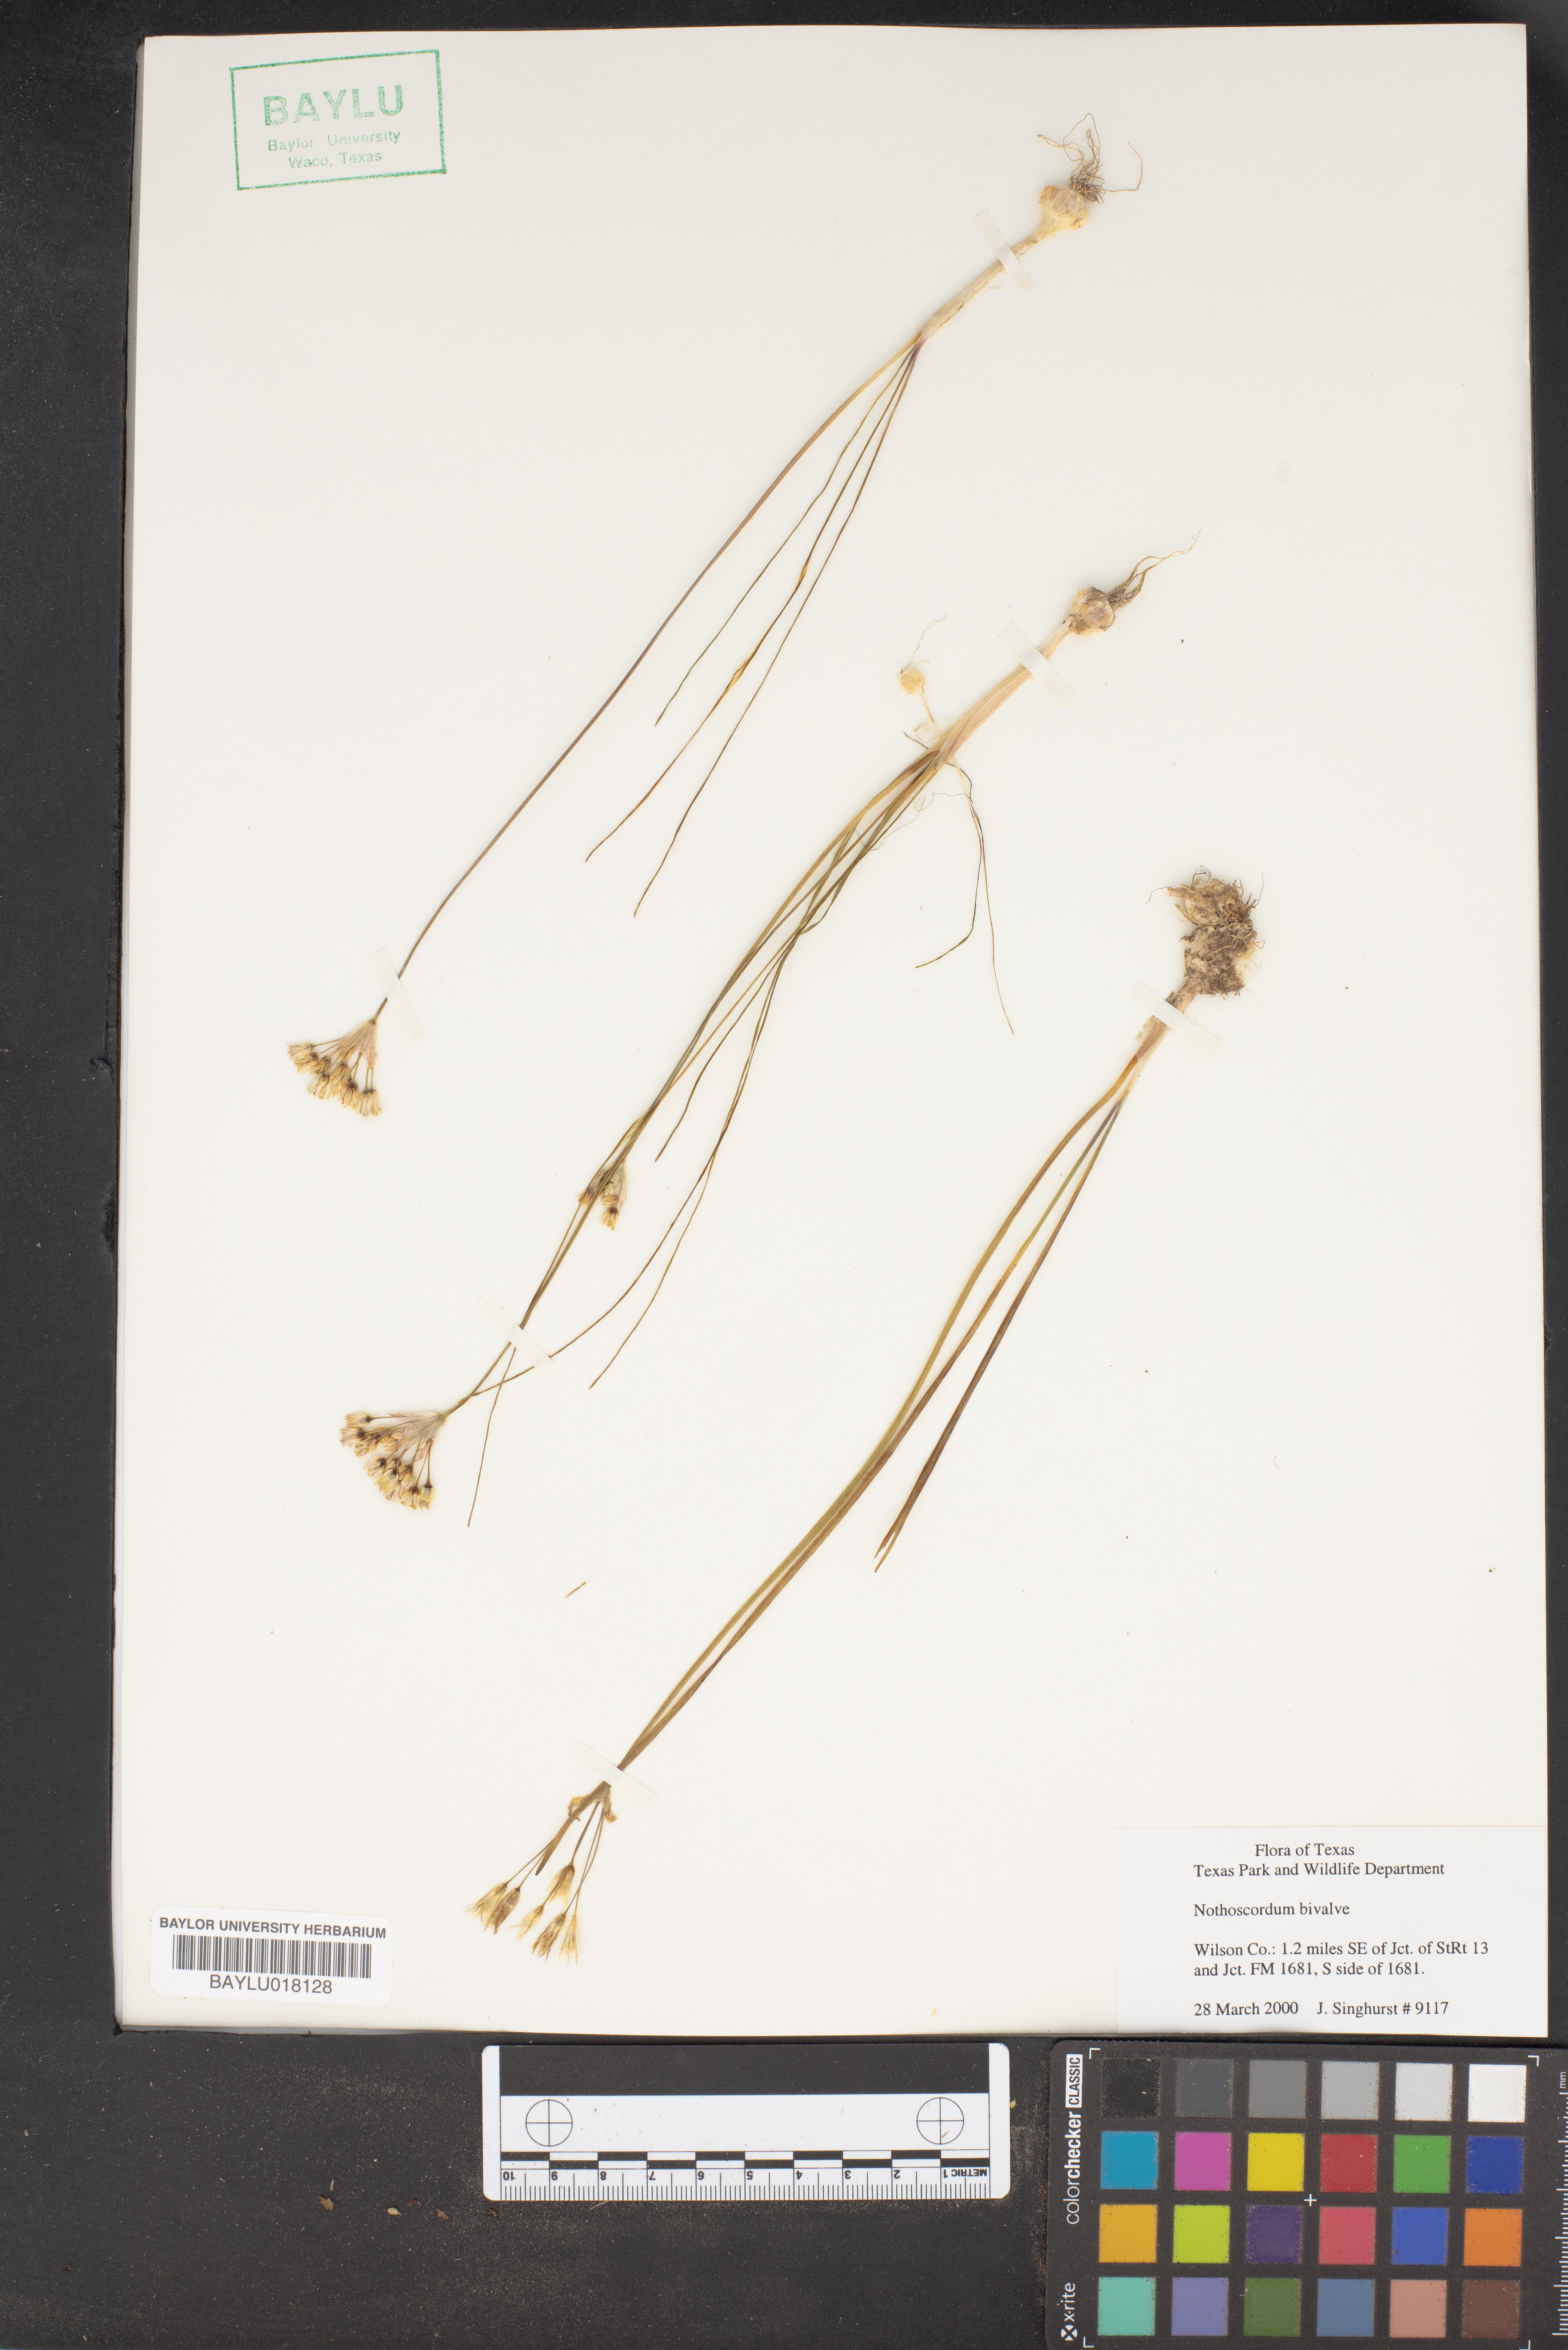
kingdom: Plantae
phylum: Tracheophyta
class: Liliopsida
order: Asparagales
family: Amaryllidaceae
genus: Nothoscordum
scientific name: Nothoscordum bivalve
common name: Crow-poison
